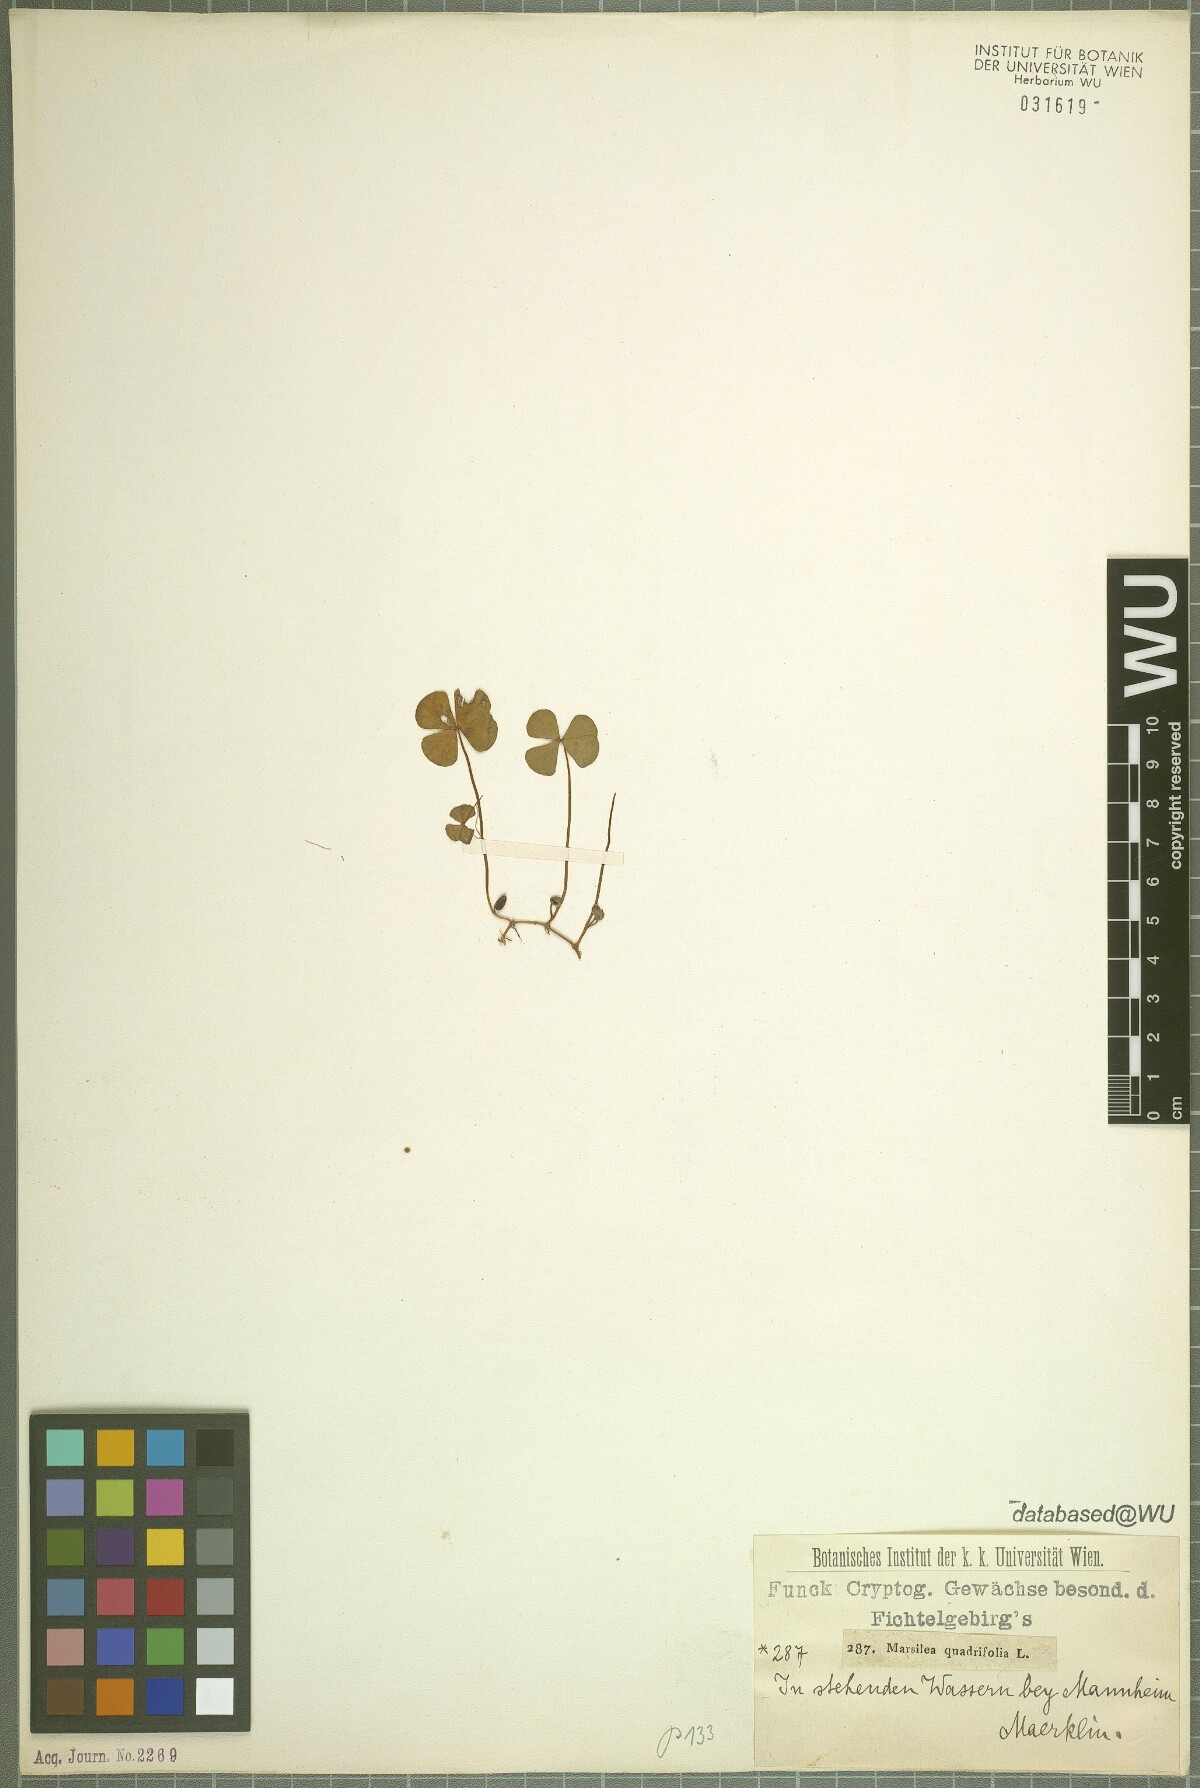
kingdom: Plantae
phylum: Tracheophyta
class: Polypodiopsida
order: Salviniales
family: Marsileaceae
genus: Marsilea
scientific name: Marsilea quadrifolia
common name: Water shamrock
